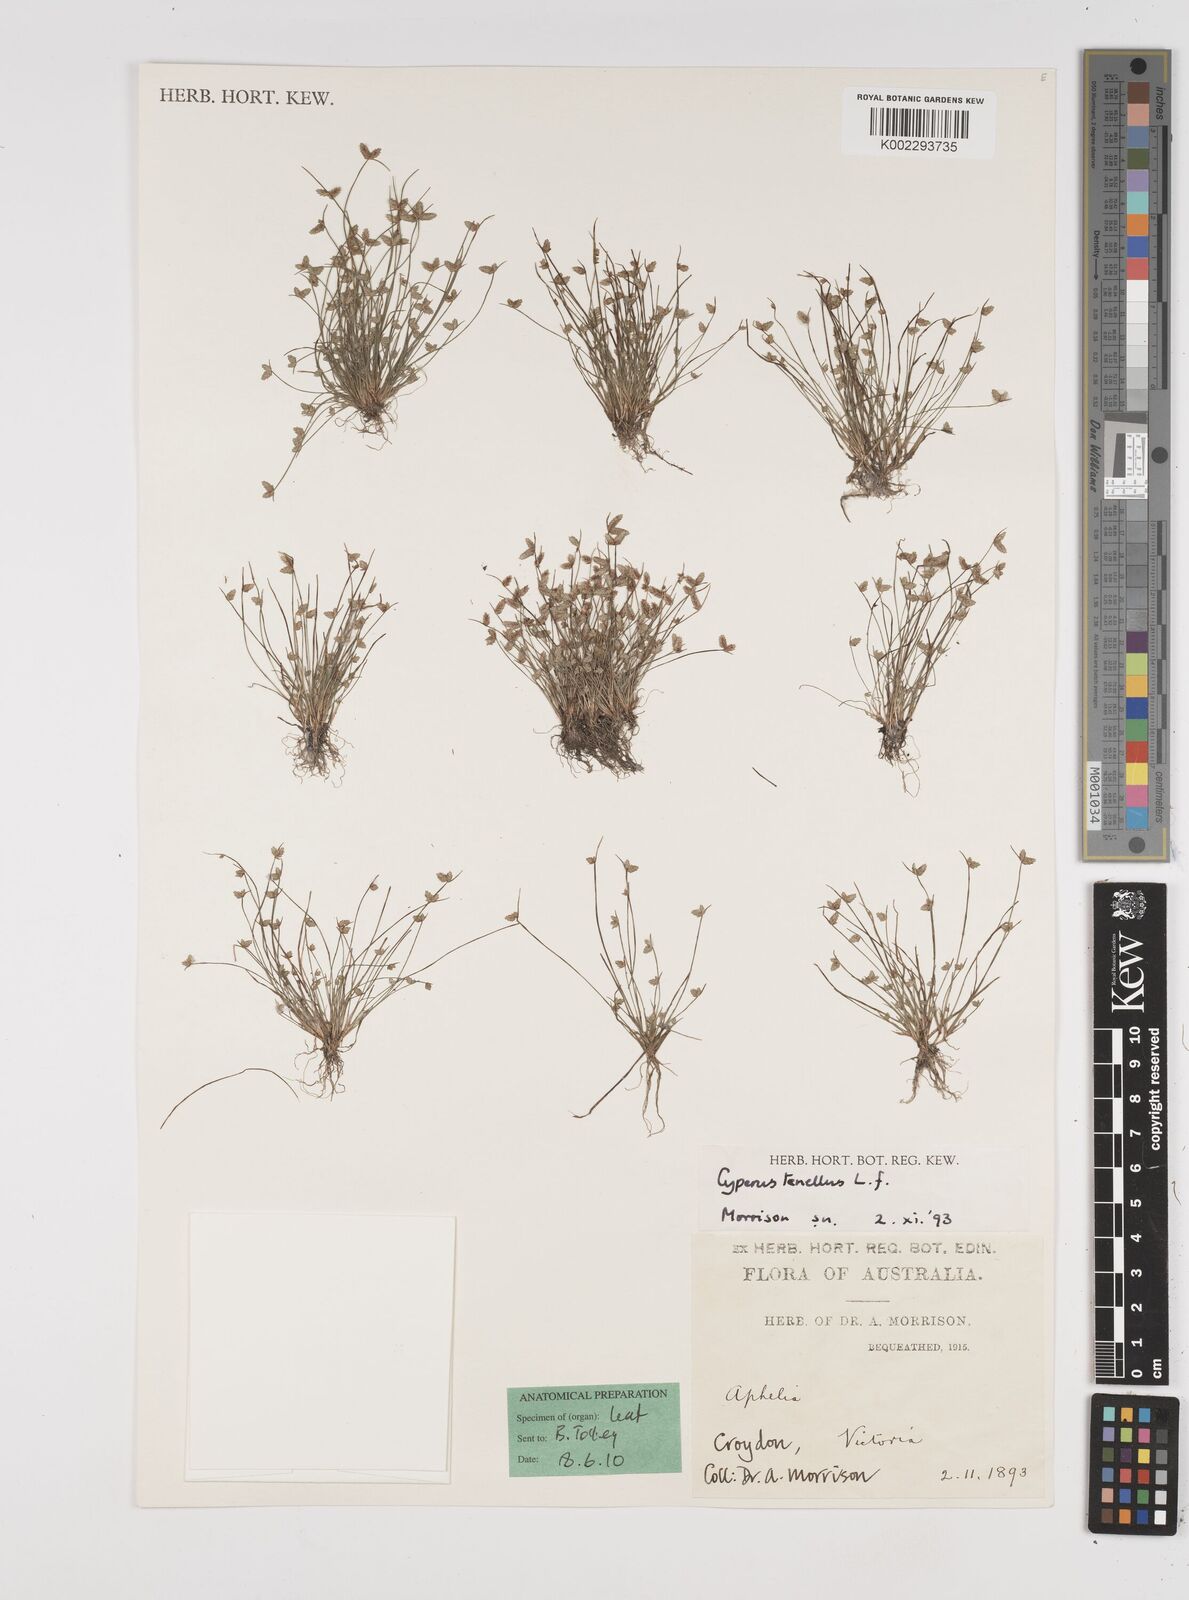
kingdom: Plantae
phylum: Tracheophyta
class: Liliopsida
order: Poales
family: Cyperaceae
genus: Isolepis
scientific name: Isolepis levynsiana
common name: Sedge
